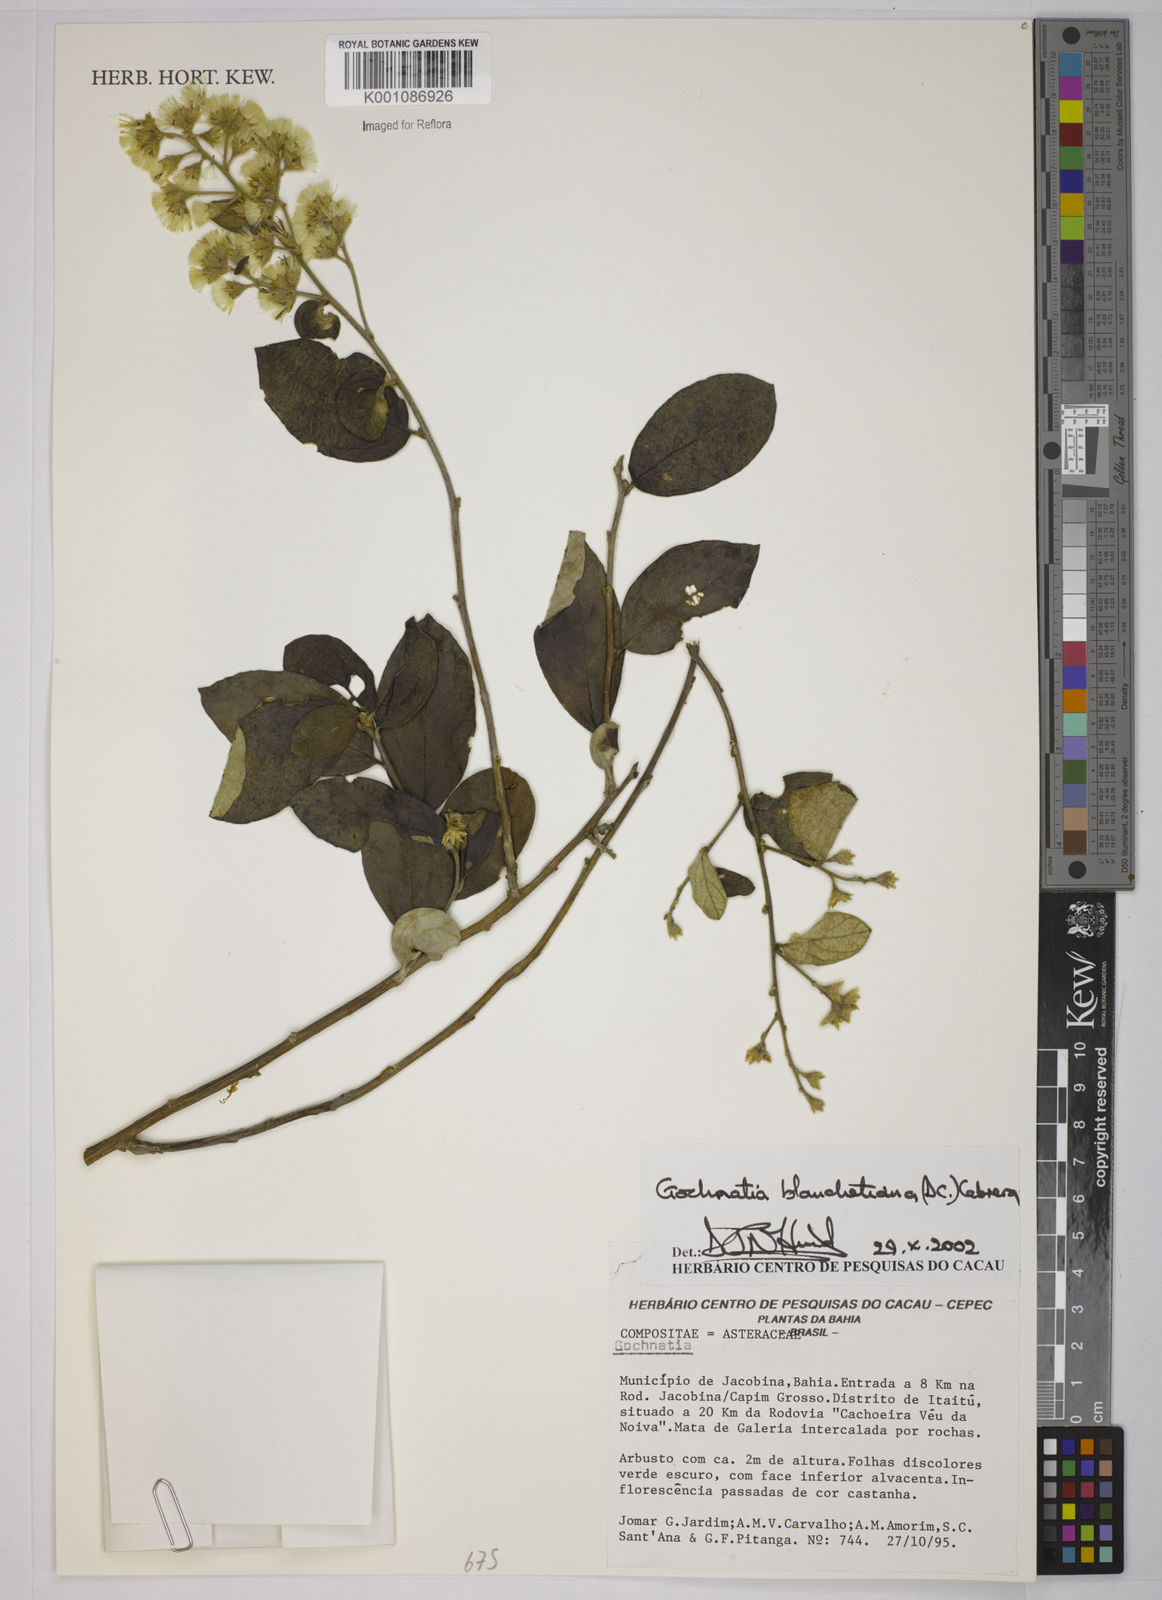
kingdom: Plantae
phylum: Tracheophyta
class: Magnoliopsida
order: Asterales
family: Asteraceae
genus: Moquiniastrum
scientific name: Moquiniastrum blanchetianum
